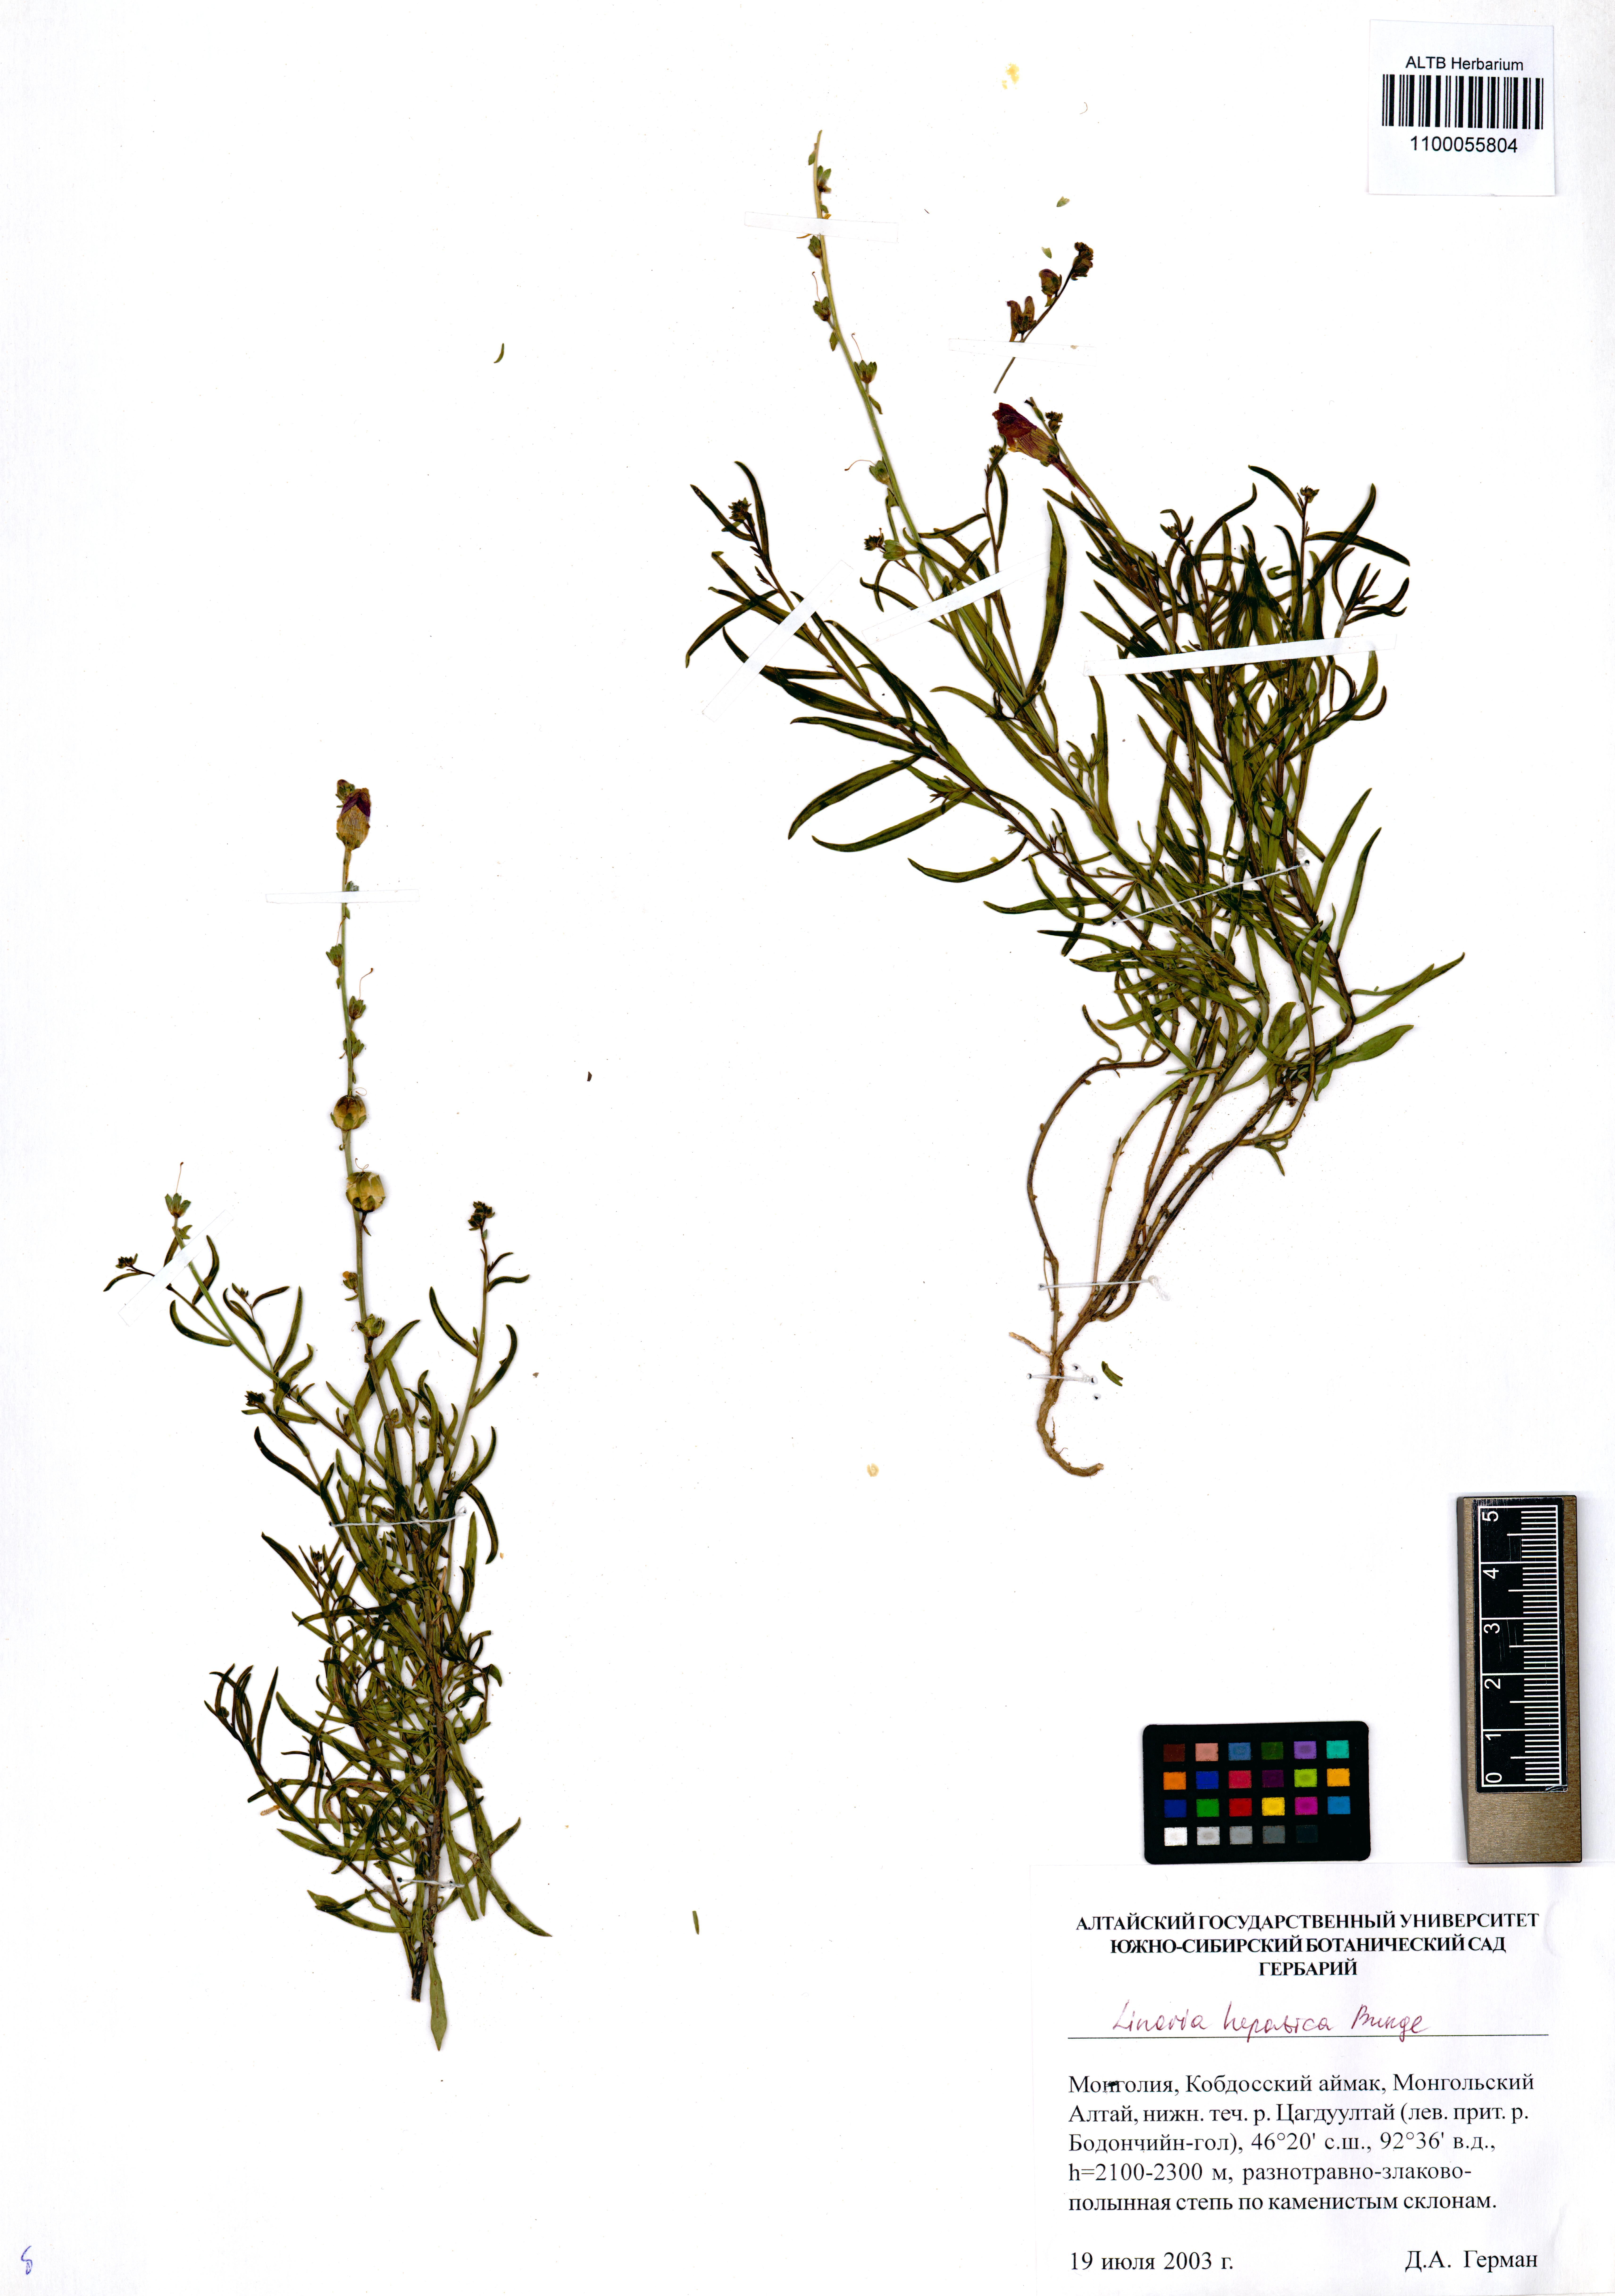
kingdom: Plantae
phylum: Tracheophyta
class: Magnoliopsida
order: Lamiales
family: Plantaginaceae
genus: Linaria
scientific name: Linaria hepatica
